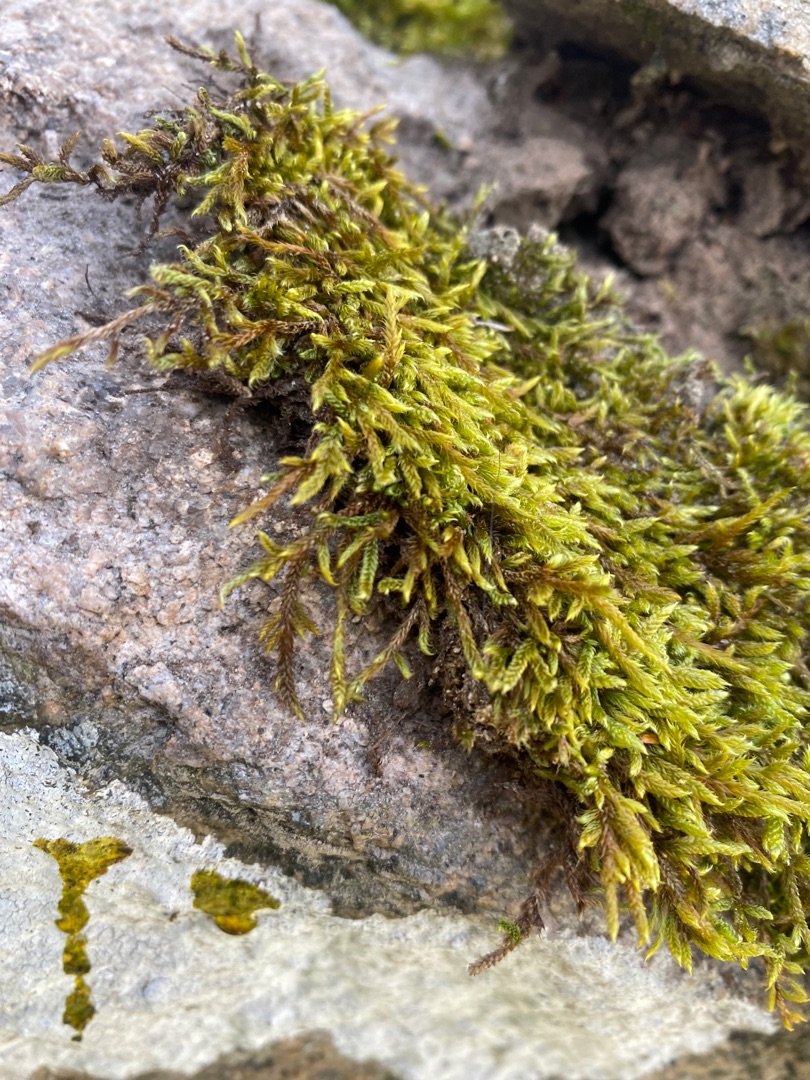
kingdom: Plantae
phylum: Bryophyta
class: Bryopsida
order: Hypnales
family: Hypnaceae
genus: Hypnum
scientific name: Hypnum cupressiforme
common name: Almindelig cypresmos
